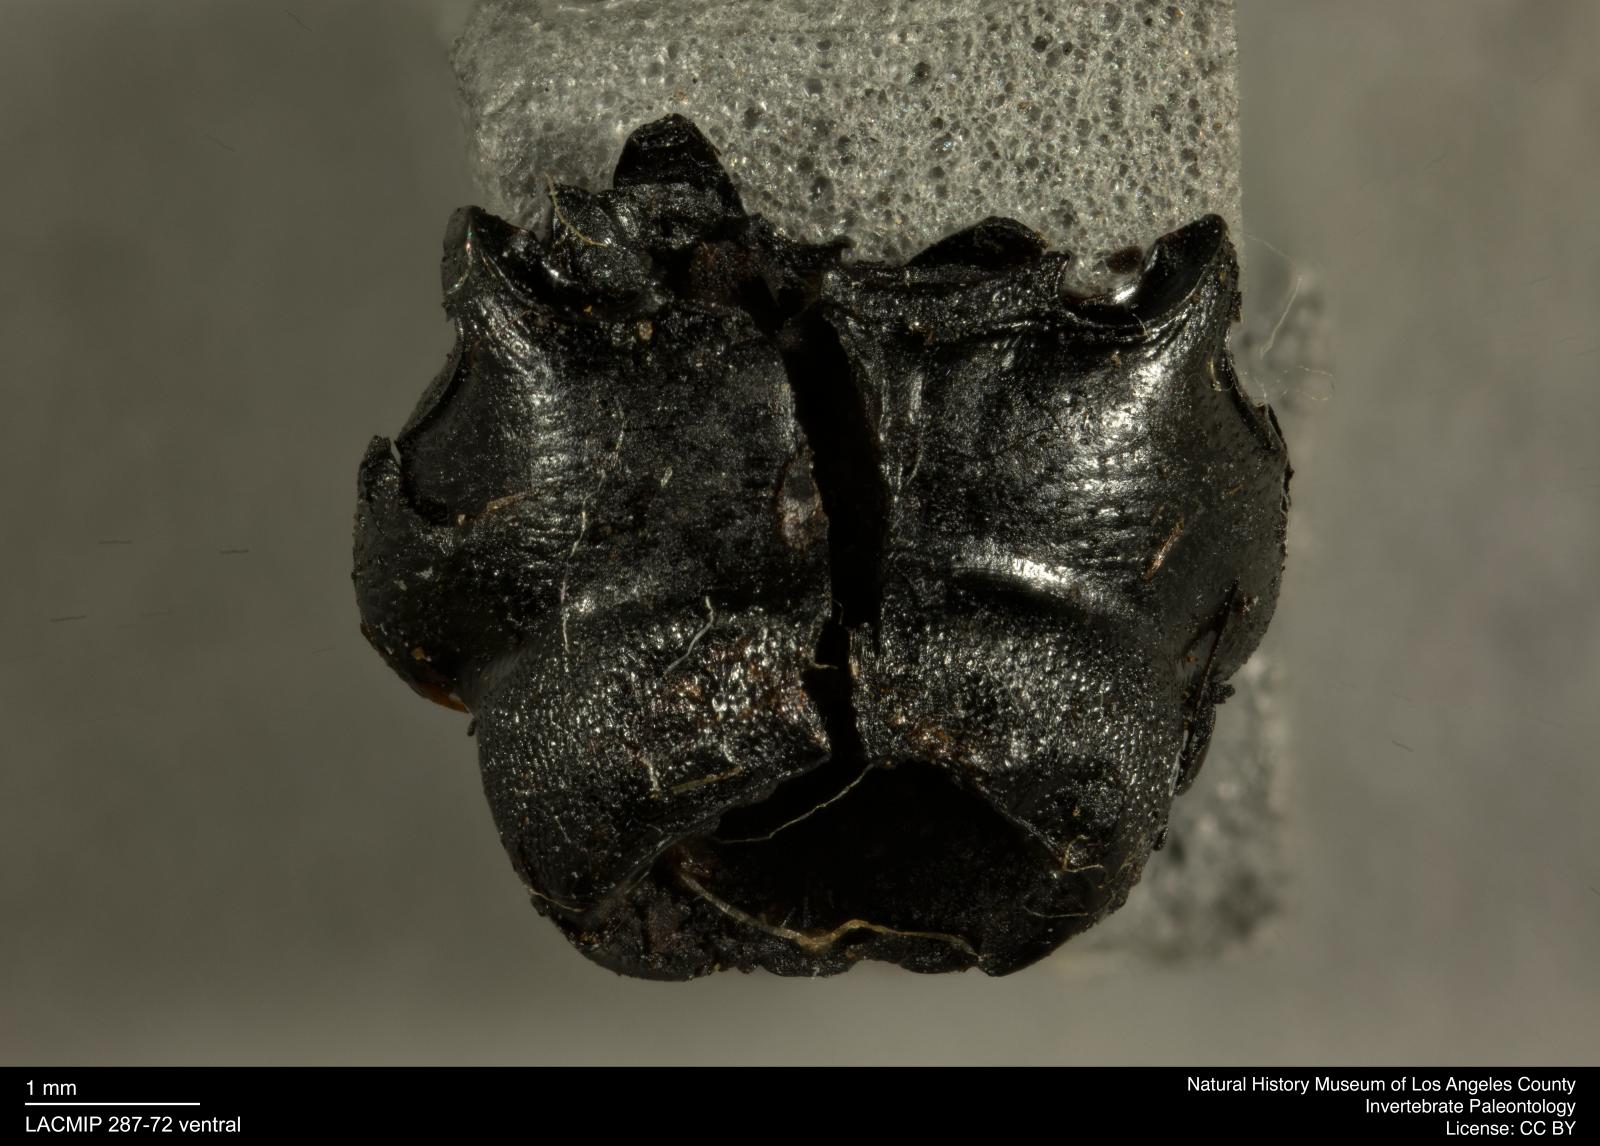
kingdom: Animalia
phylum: Arthropoda
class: Insecta
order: Coleoptera
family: Staphylinidae
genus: Nicrophorus
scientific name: Nicrophorus marginatus
